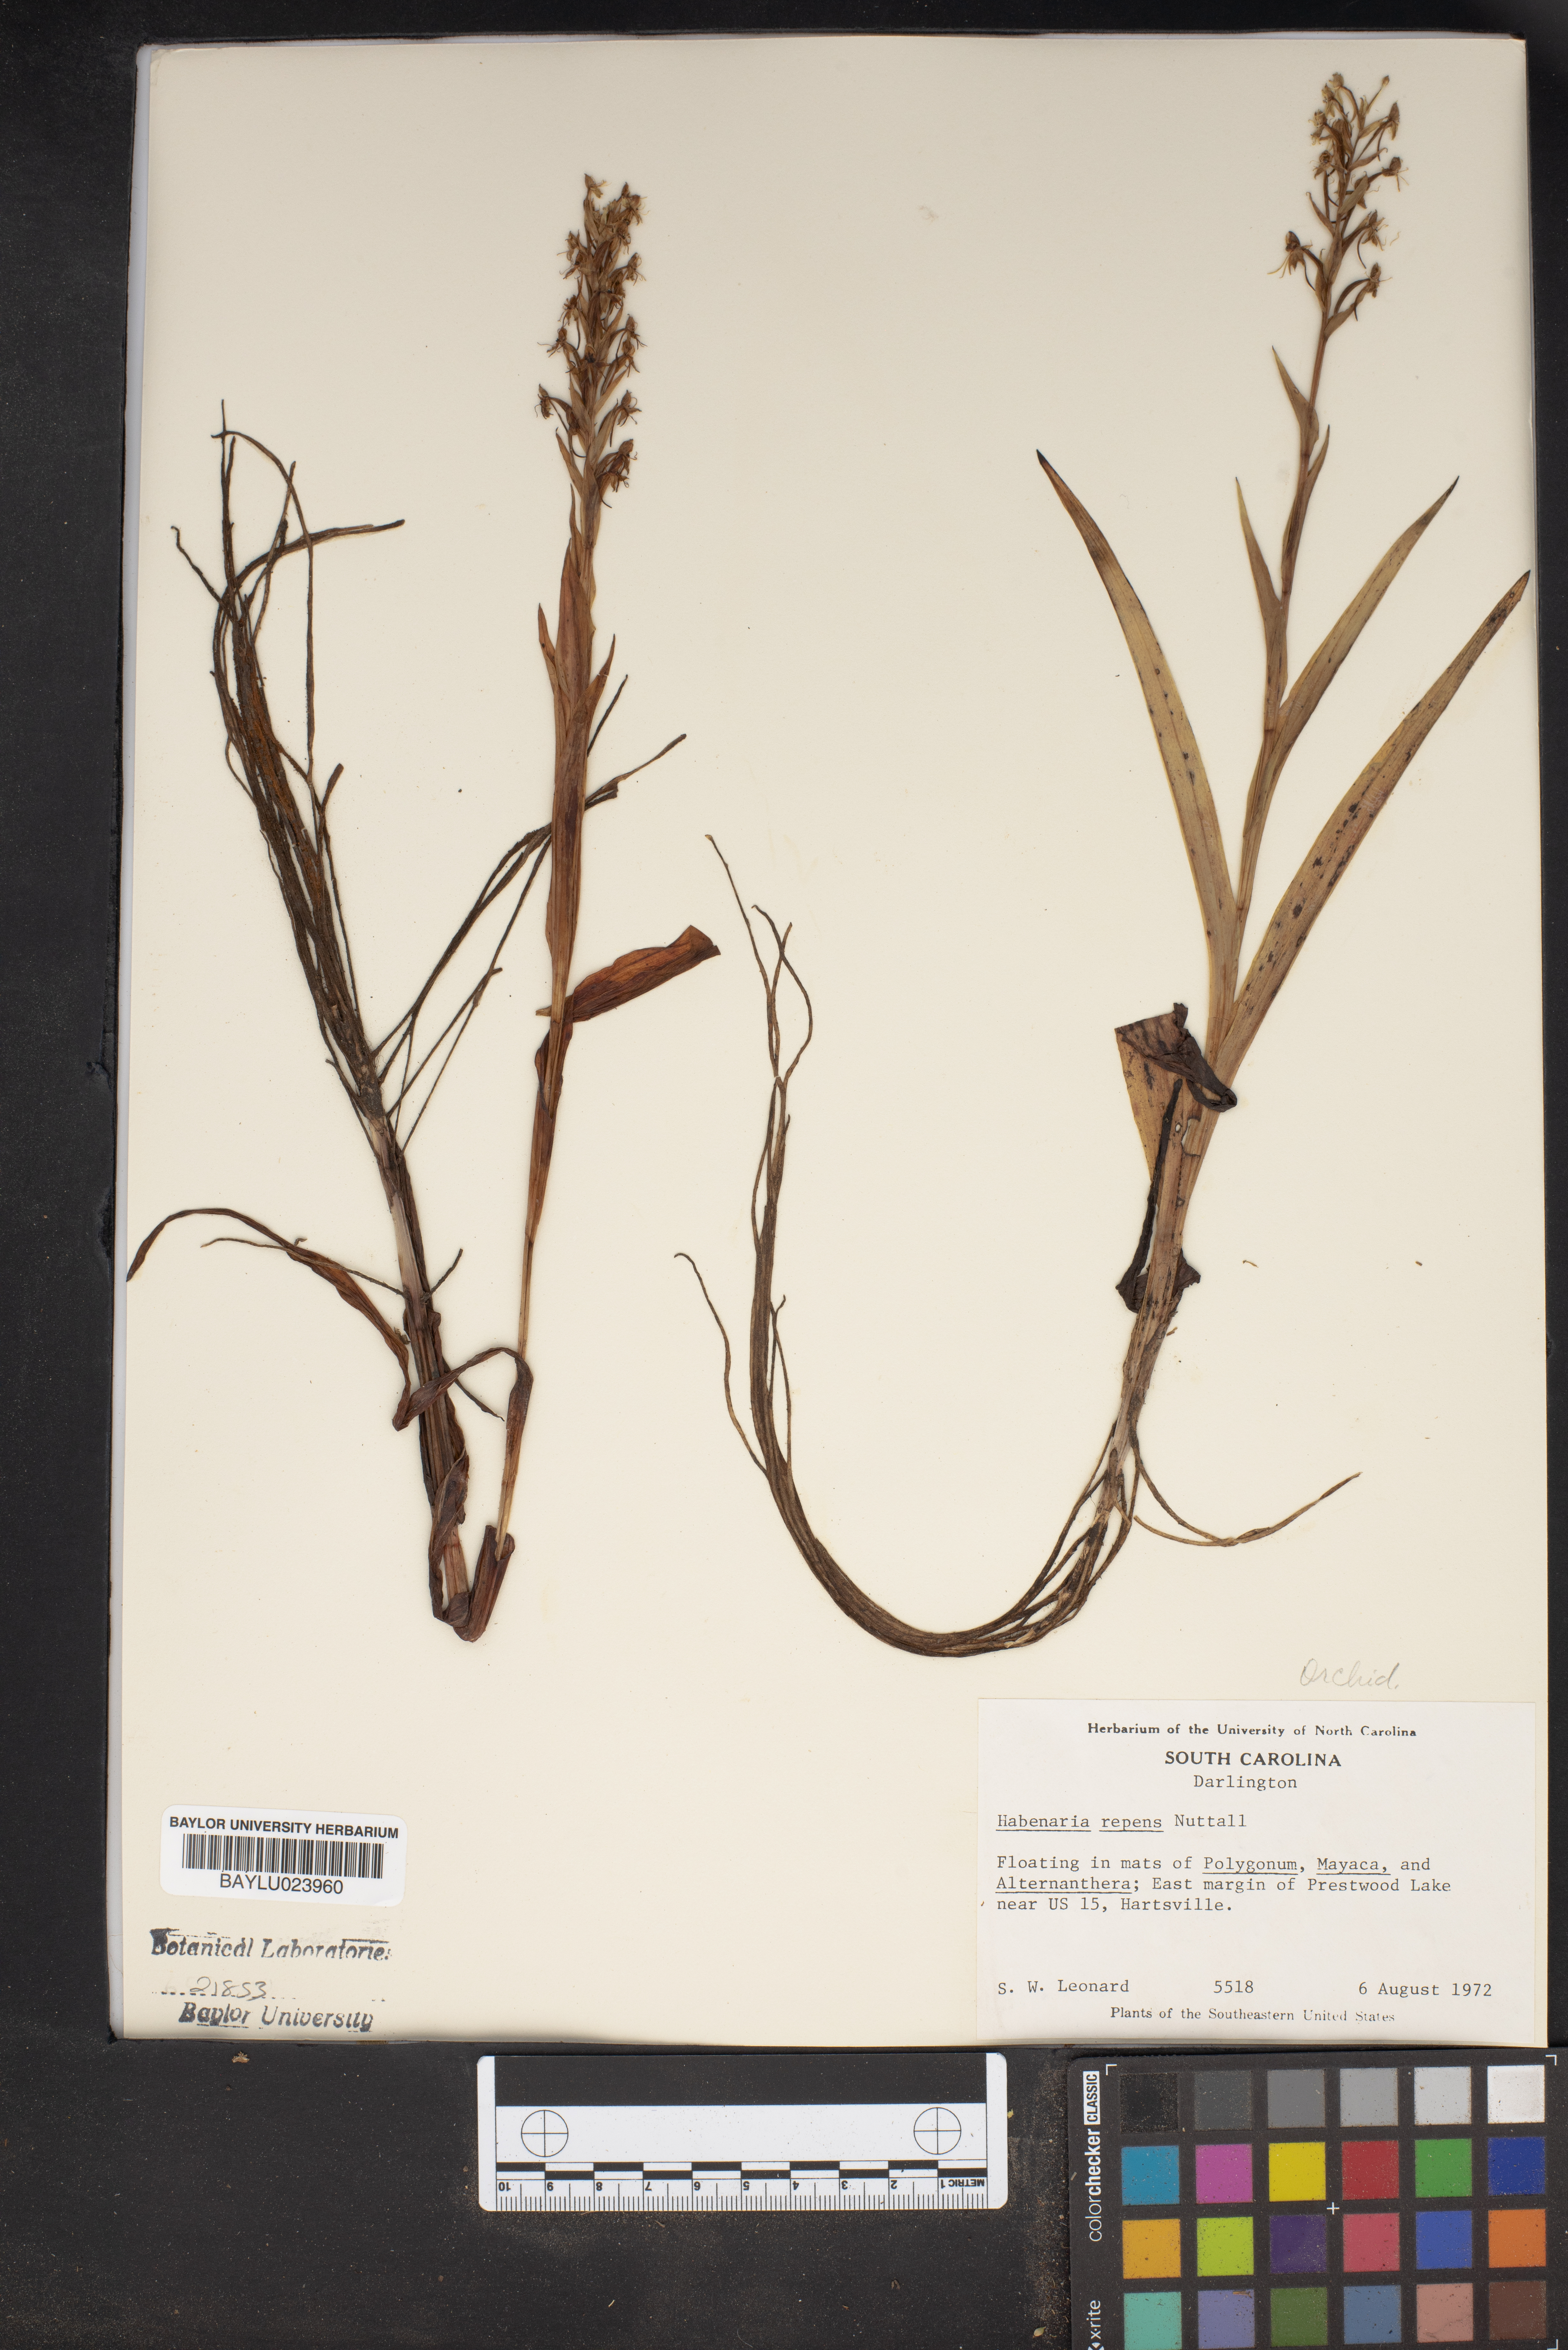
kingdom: Plantae
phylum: Tracheophyta
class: Liliopsida
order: Asparagales
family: Orchidaceae
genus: Habenaria
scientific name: Habenaria repens
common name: Water orchid
